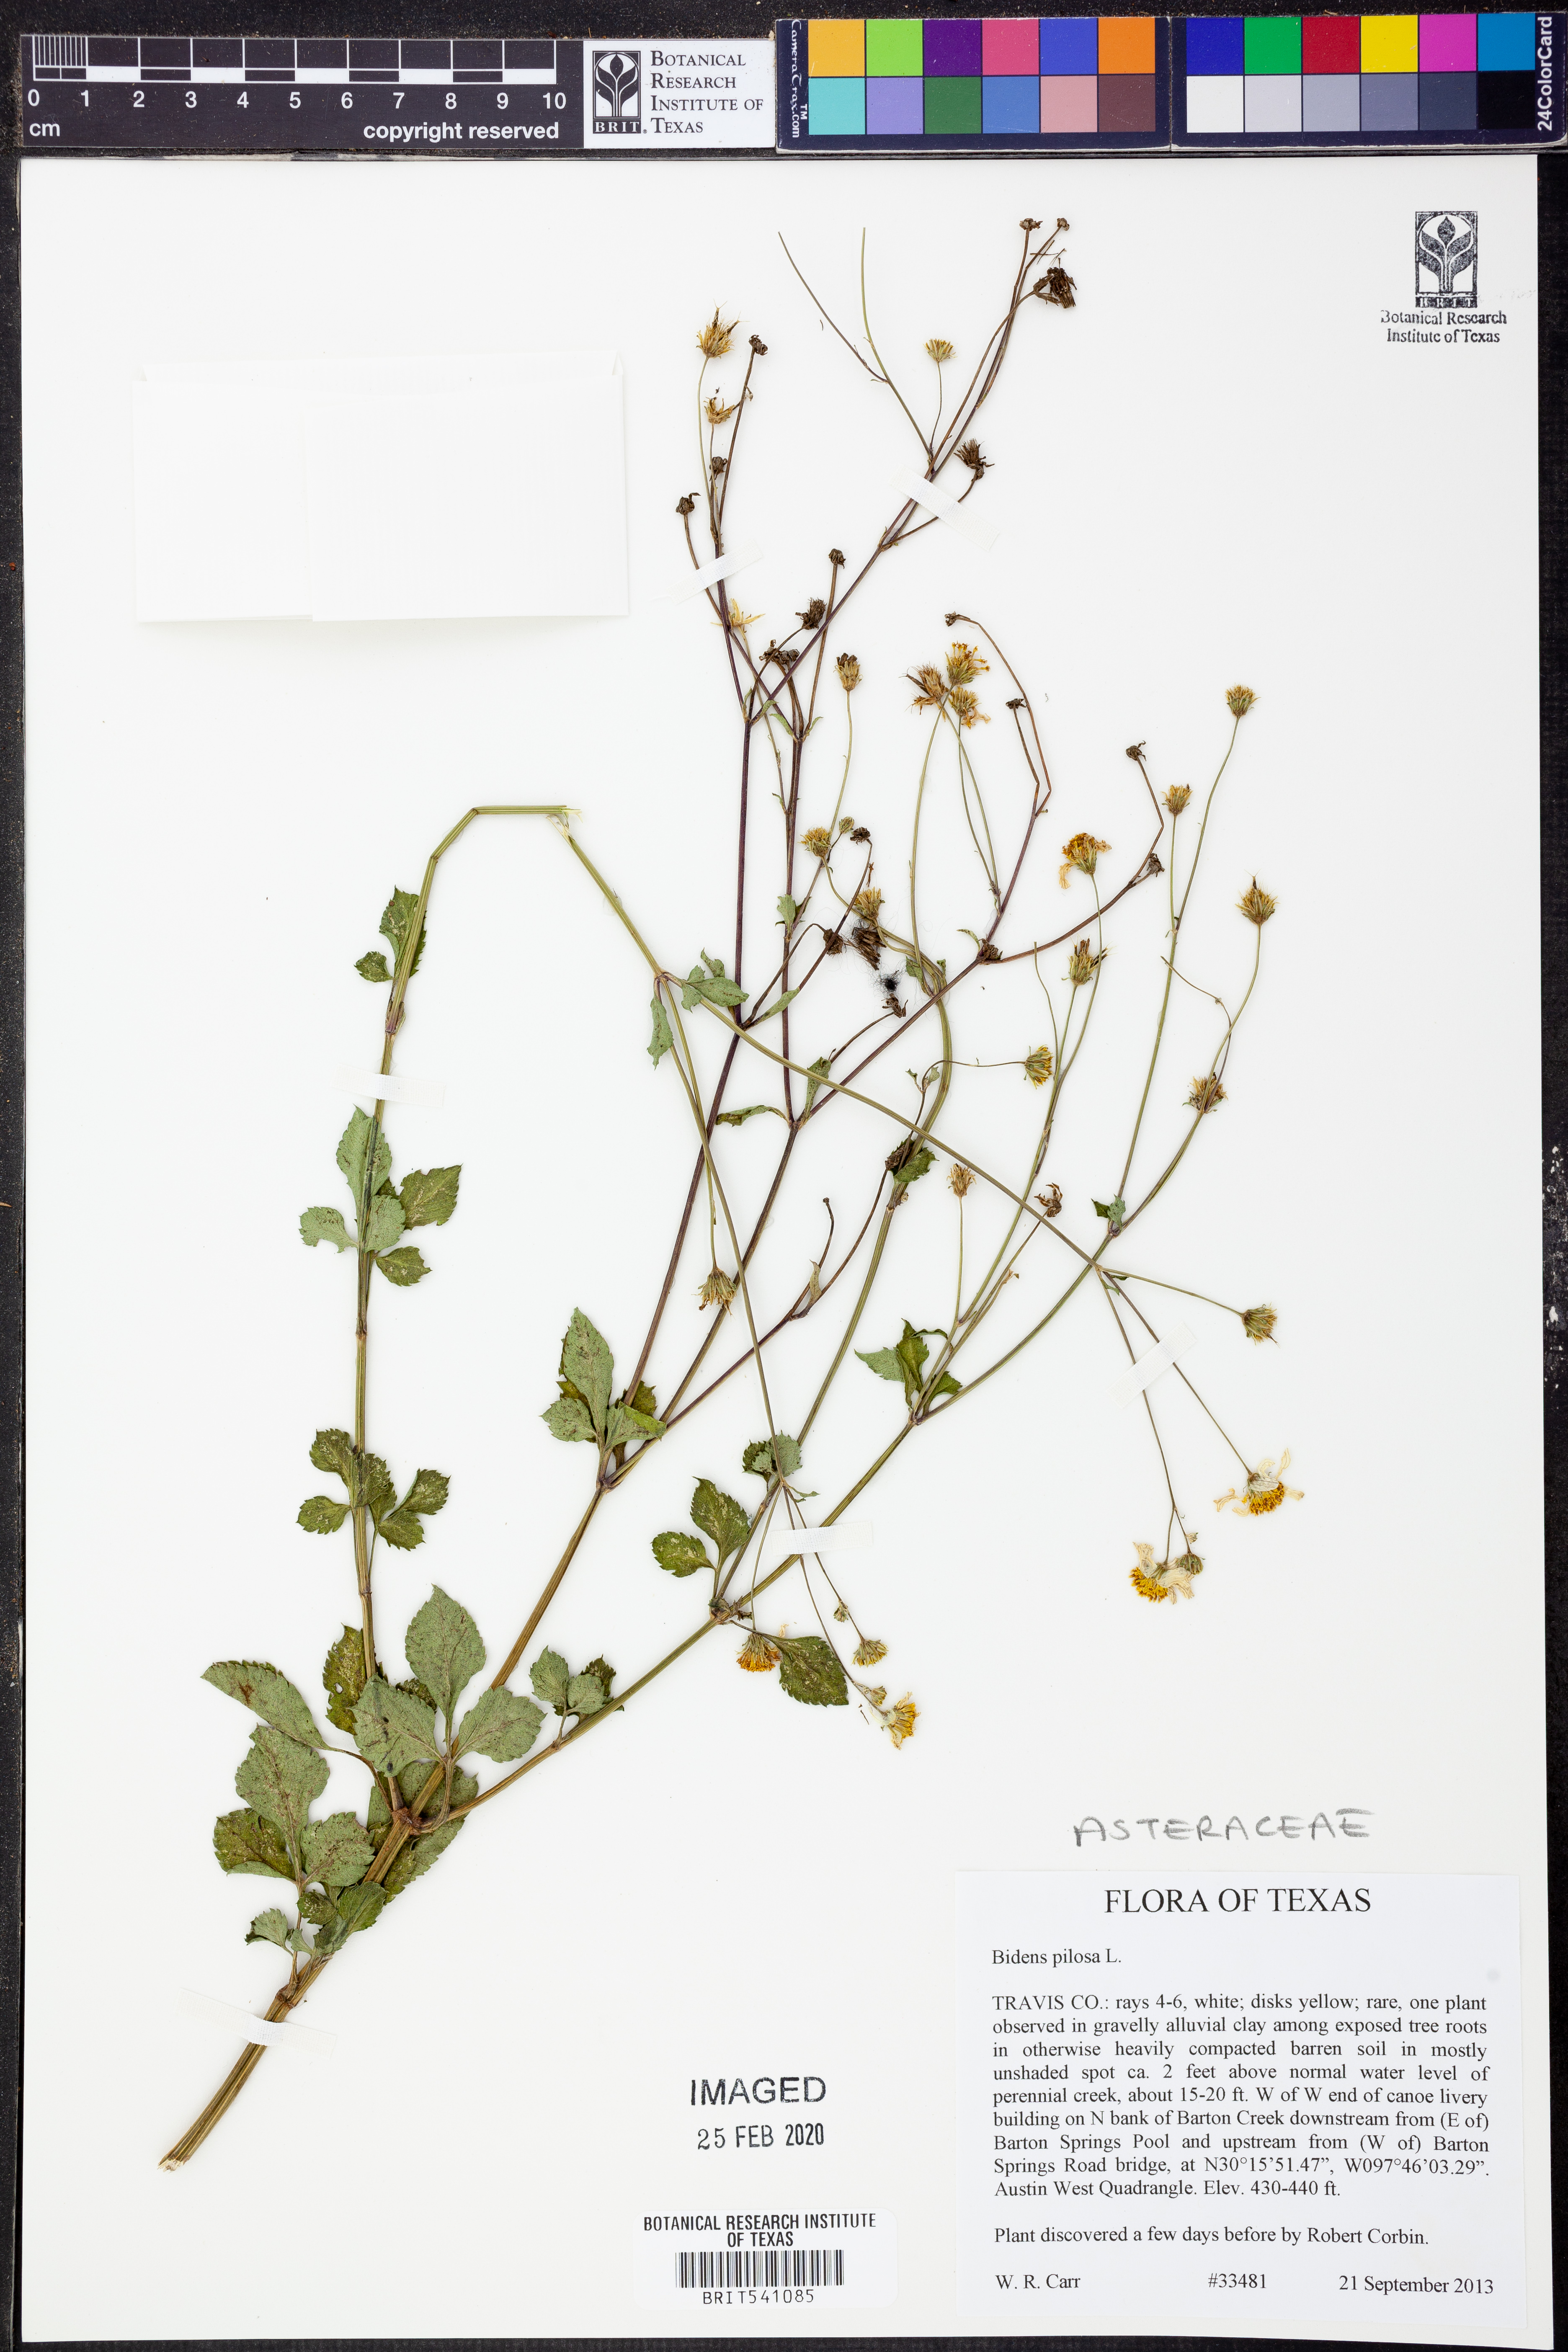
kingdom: Plantae
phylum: Tracheophyta
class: Magnoliopsida
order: Asterales
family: Asteraceae
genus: Bidens
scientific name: Bidens pilosa
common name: Black-jack
